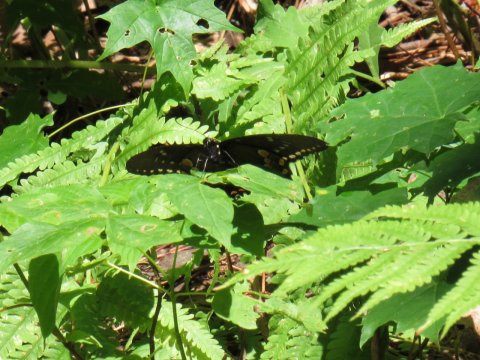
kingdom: Animalia
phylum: Arthropoda
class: Insecta
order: Lepidoptera
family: Papilionidae
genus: Papilio
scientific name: Papilio
